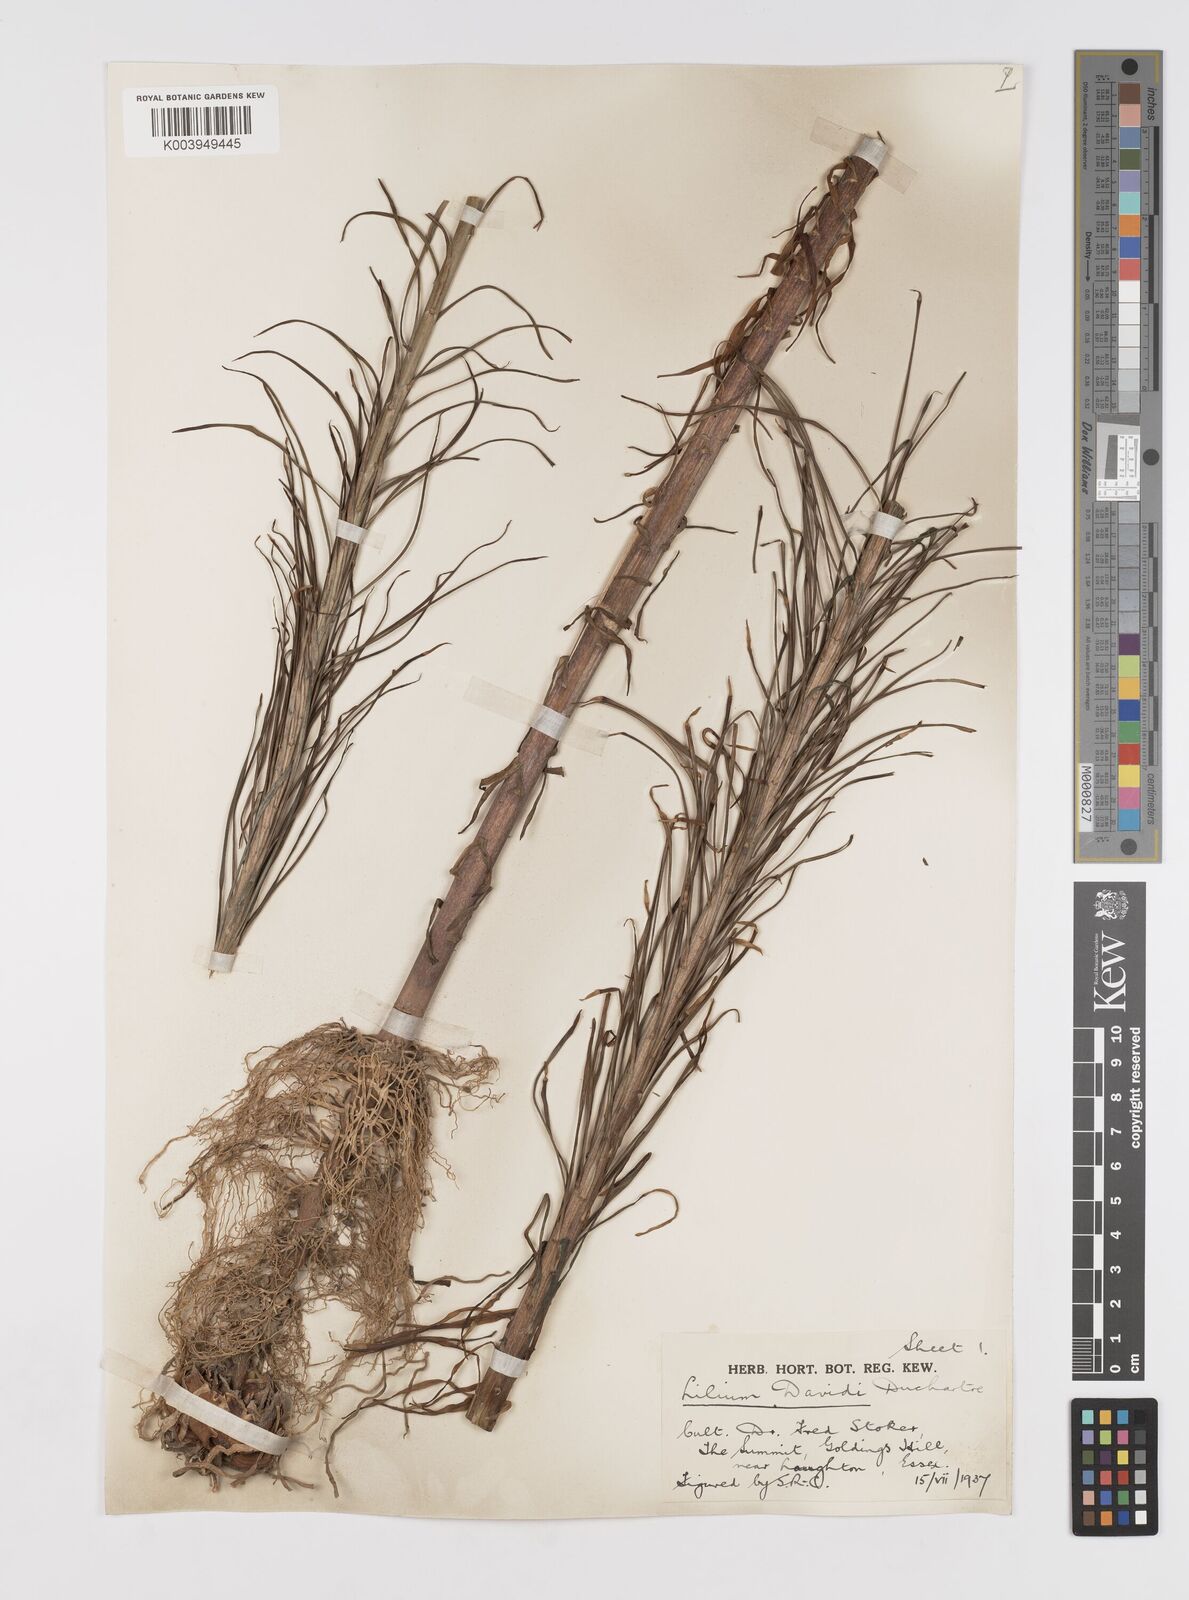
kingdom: Plantae
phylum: Tracheophyta
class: Liliopsida
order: Liliales
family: Liliaceae
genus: Lilium
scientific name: Lilium davidii
